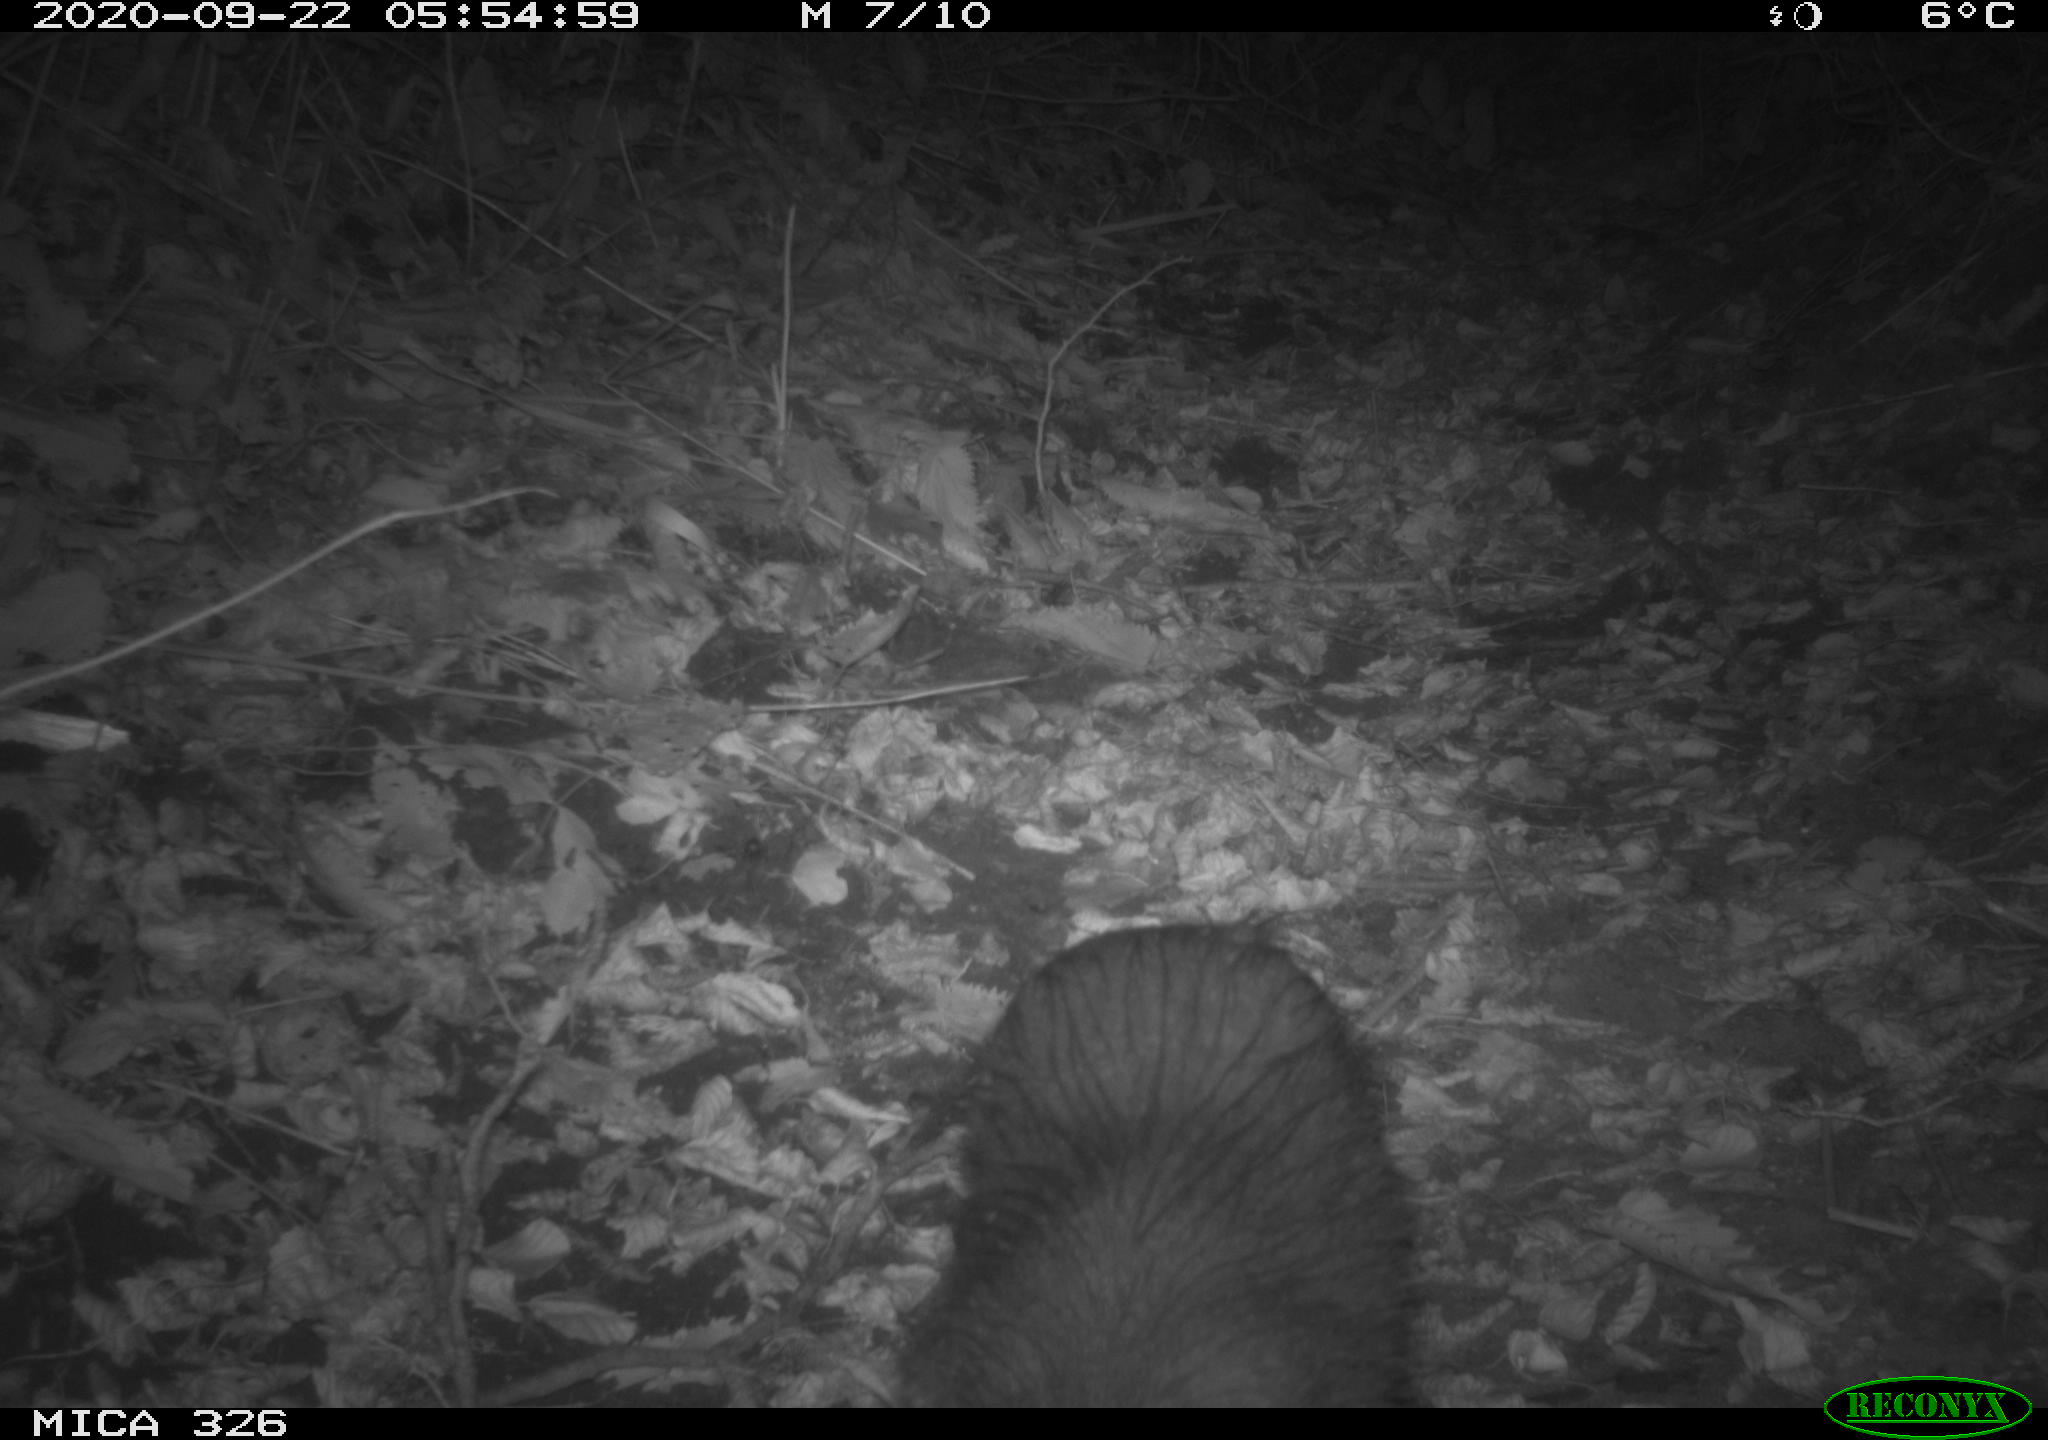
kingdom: Animalia
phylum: Chordata
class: Mammalia
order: Rodentia
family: Myocastoridae
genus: Myocastor
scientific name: Myocastor coypus
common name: Coypu
